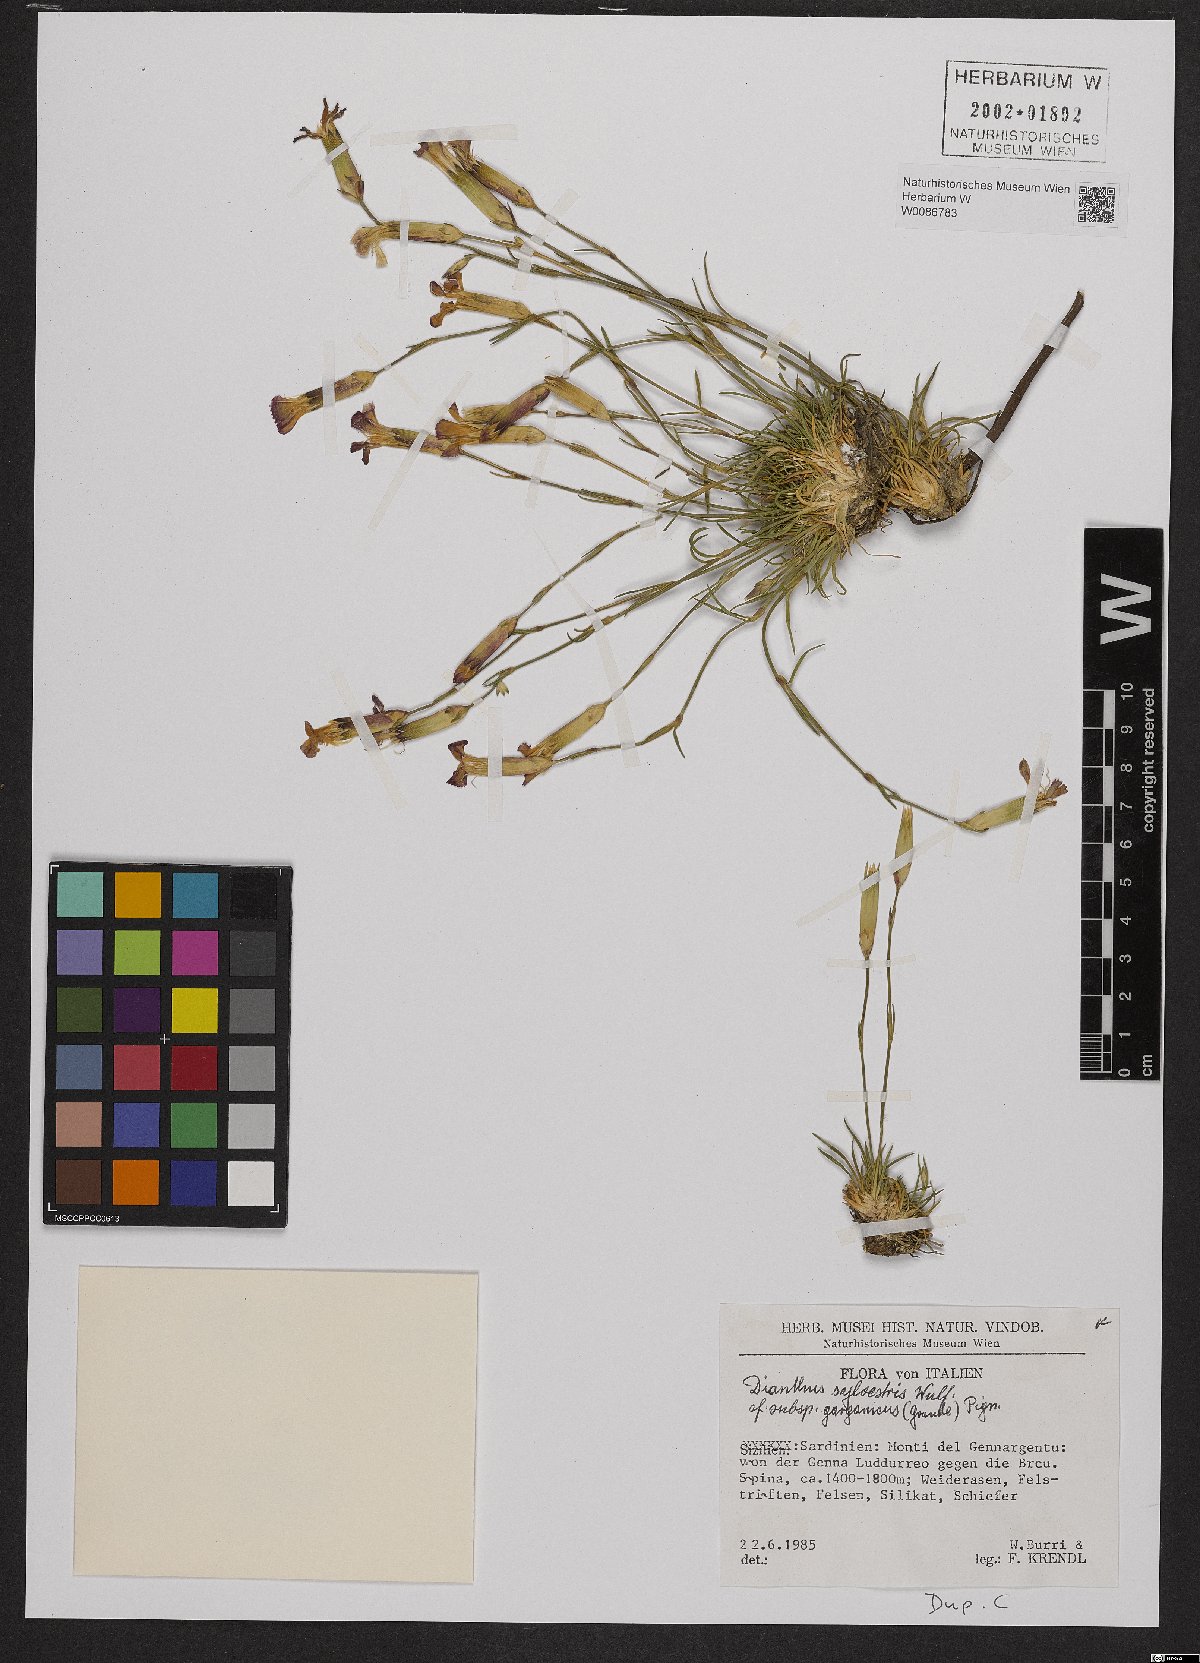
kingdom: Plantae
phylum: Tracheophyta
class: Magnoliopsida
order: Caryophyllales
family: Caryophyllaceae
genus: Dianthus
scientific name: Dianthus sylvestris
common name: Wood pink
